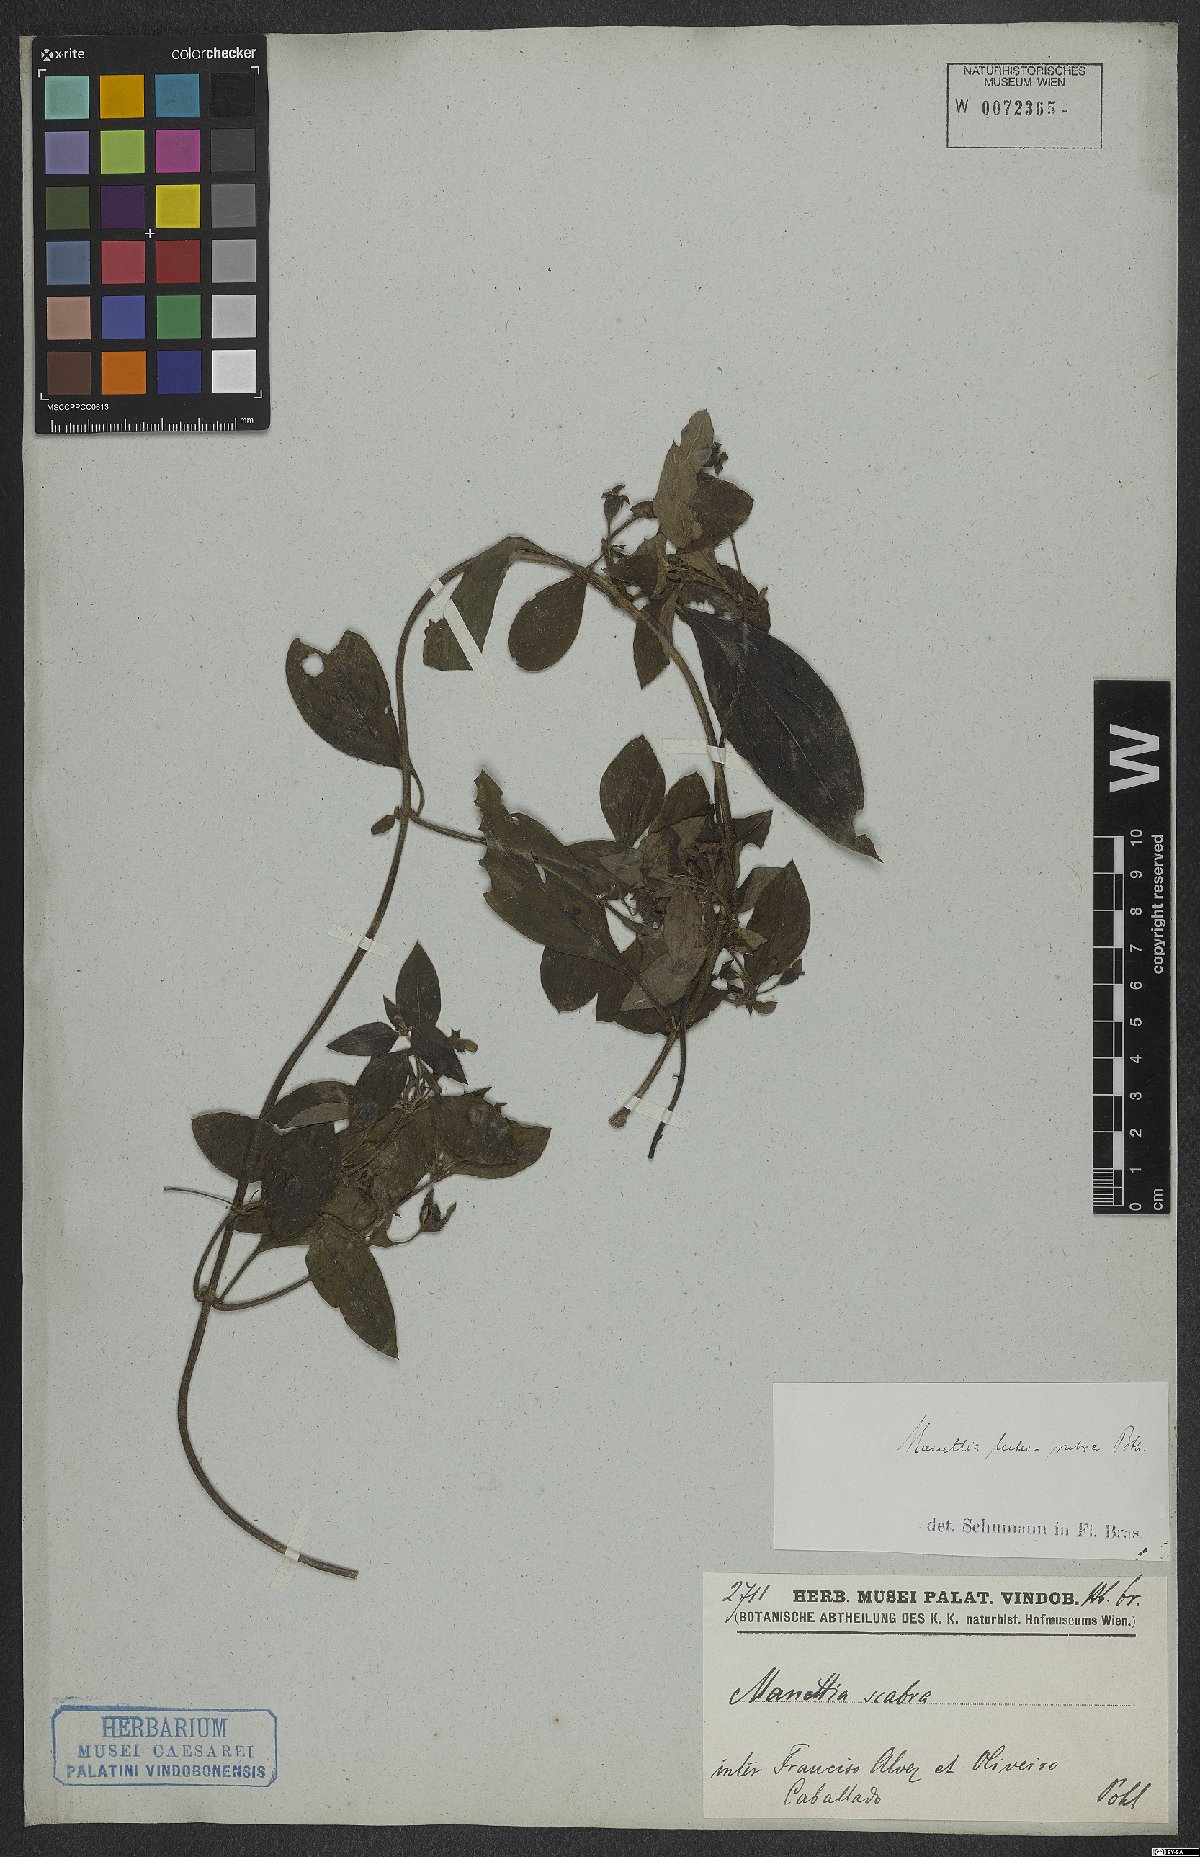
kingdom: Plantae
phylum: Tracheophyta
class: Magnoliopsida
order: Gentianales
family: Rubiaceae
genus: Manettia
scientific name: Manettia luteorubra
